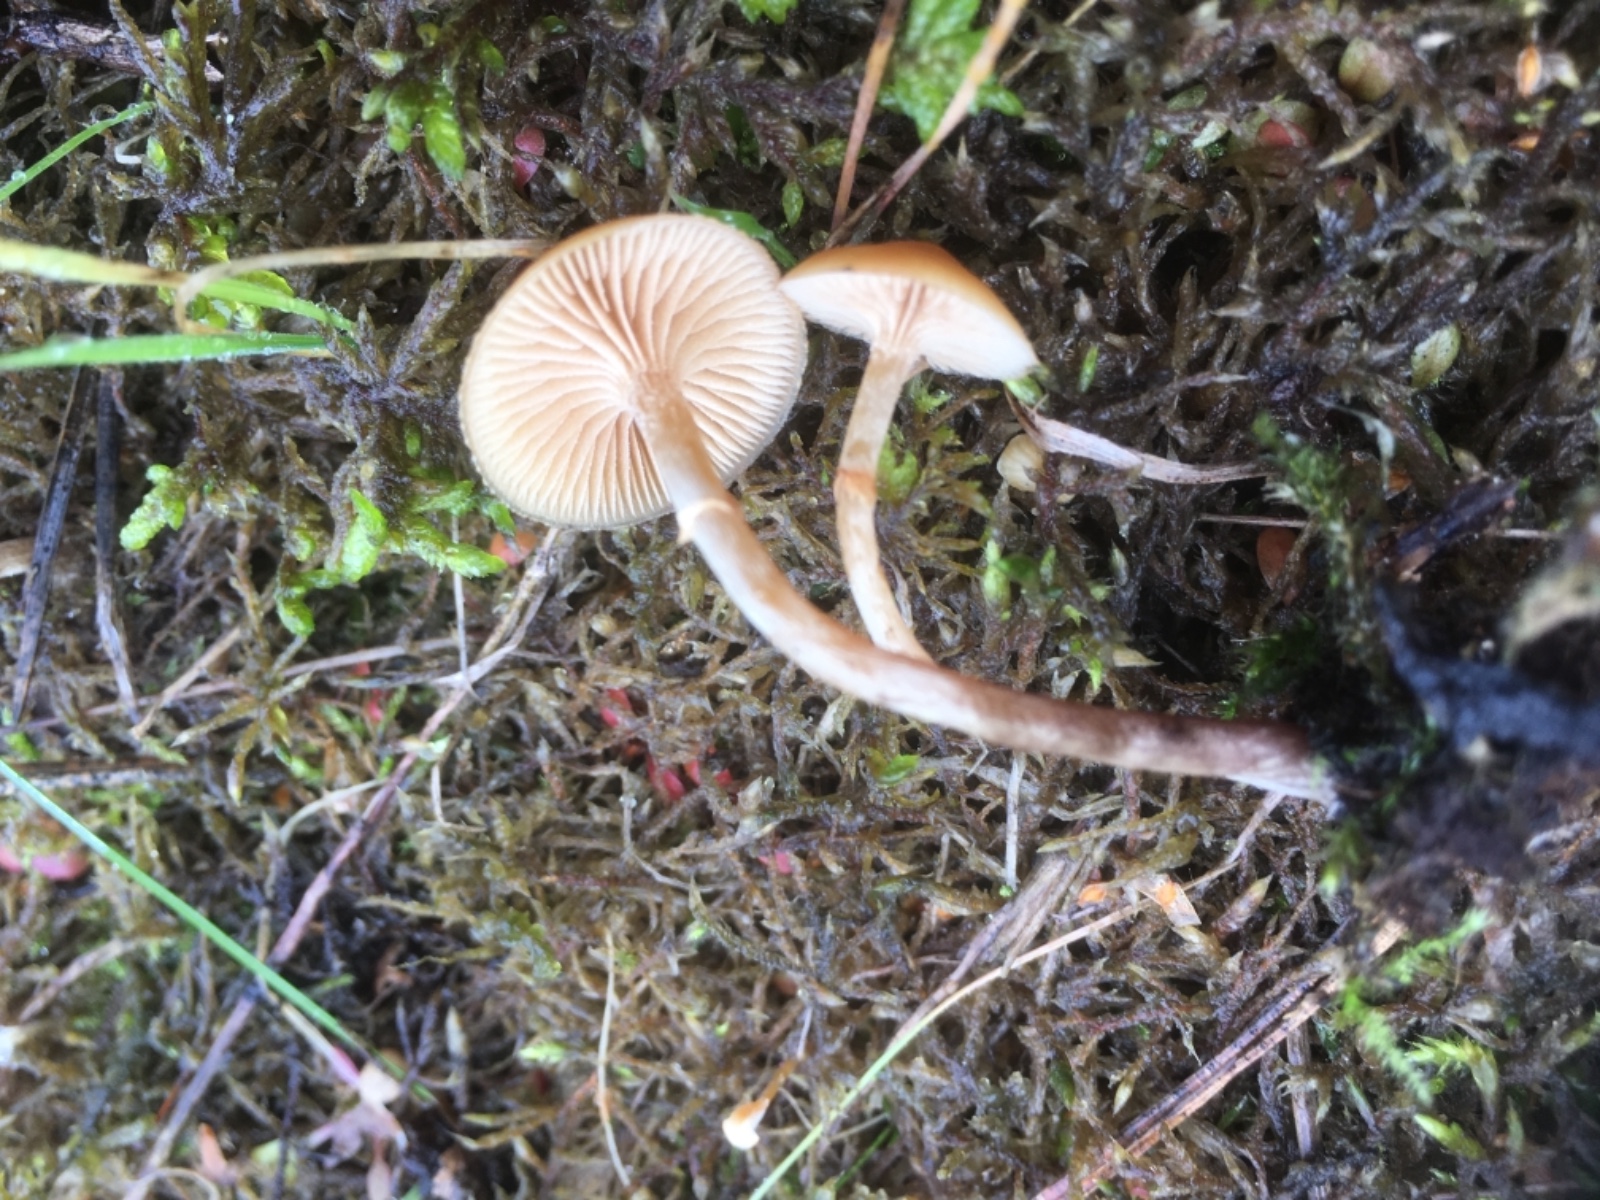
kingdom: Fungi
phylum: Basidiomycota
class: Agaricomycetes
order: Agaricales
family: Hymenogastraceae
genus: Galerina
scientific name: Galerina marginata
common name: randbæltet hjelmhat
